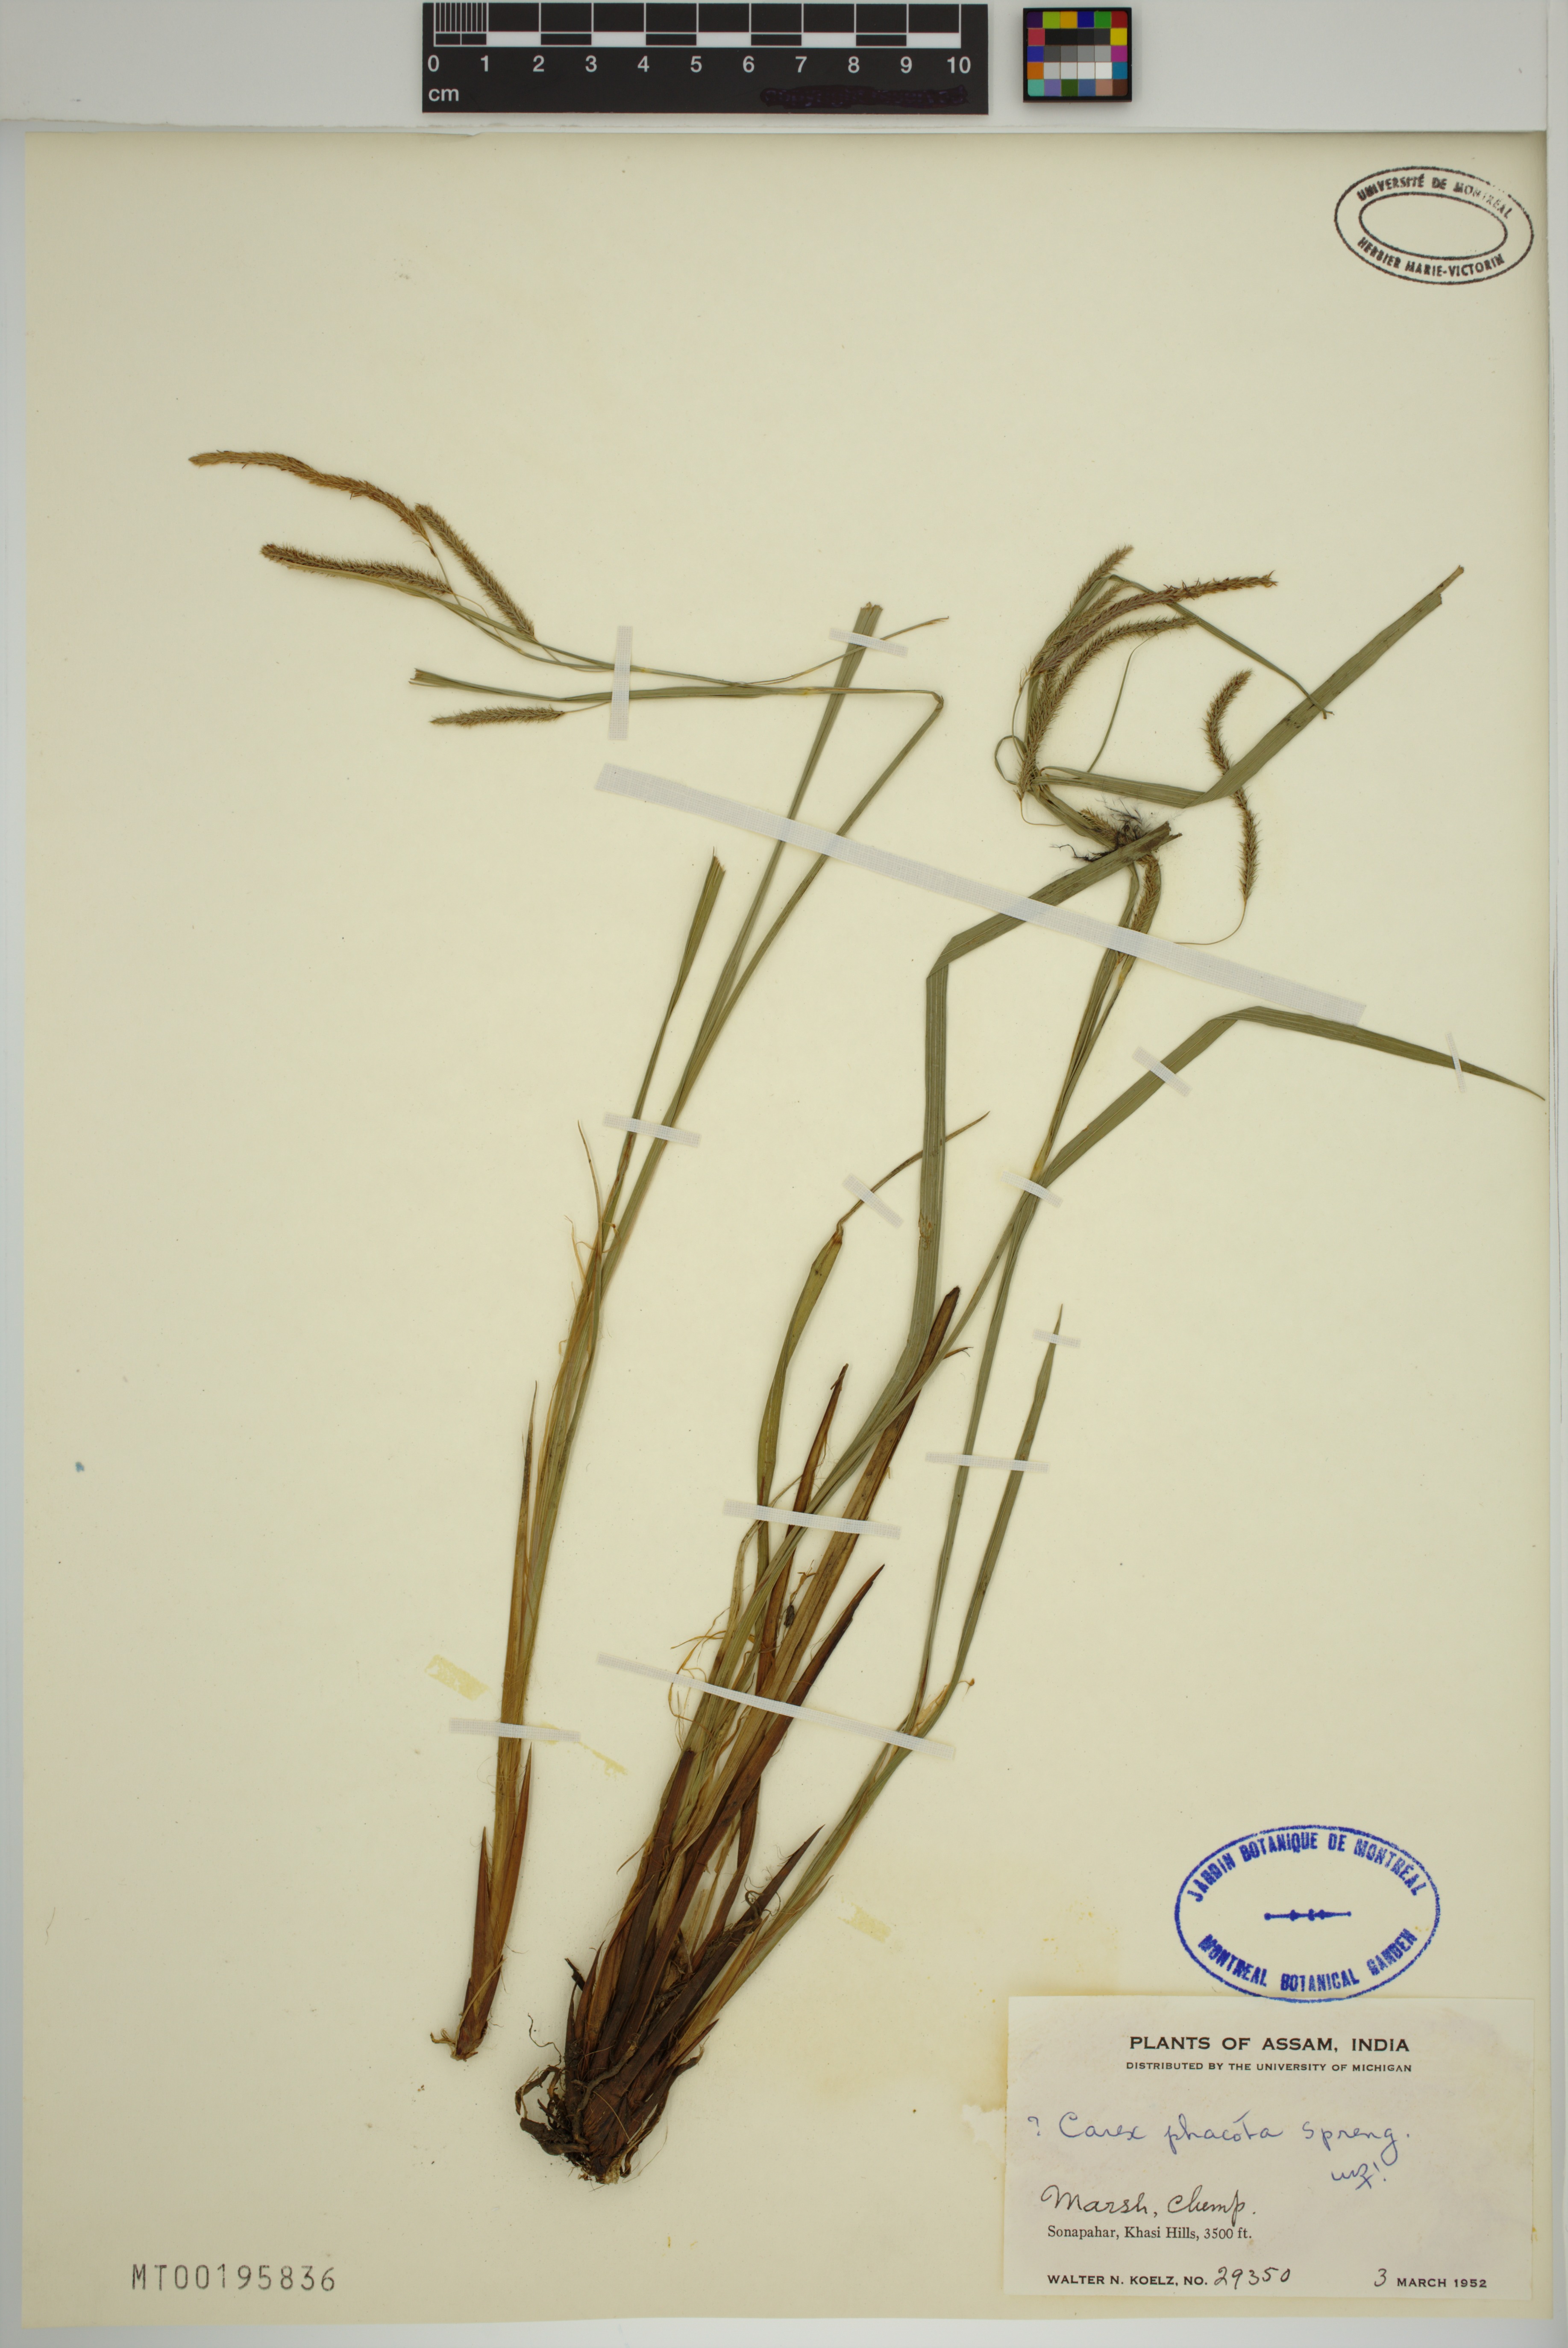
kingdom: Plantae
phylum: Tracheophyta
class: Liliopsida
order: Poales
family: Cyperaceae
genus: Carex
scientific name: Carex phacota
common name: Lakeshore sedge
